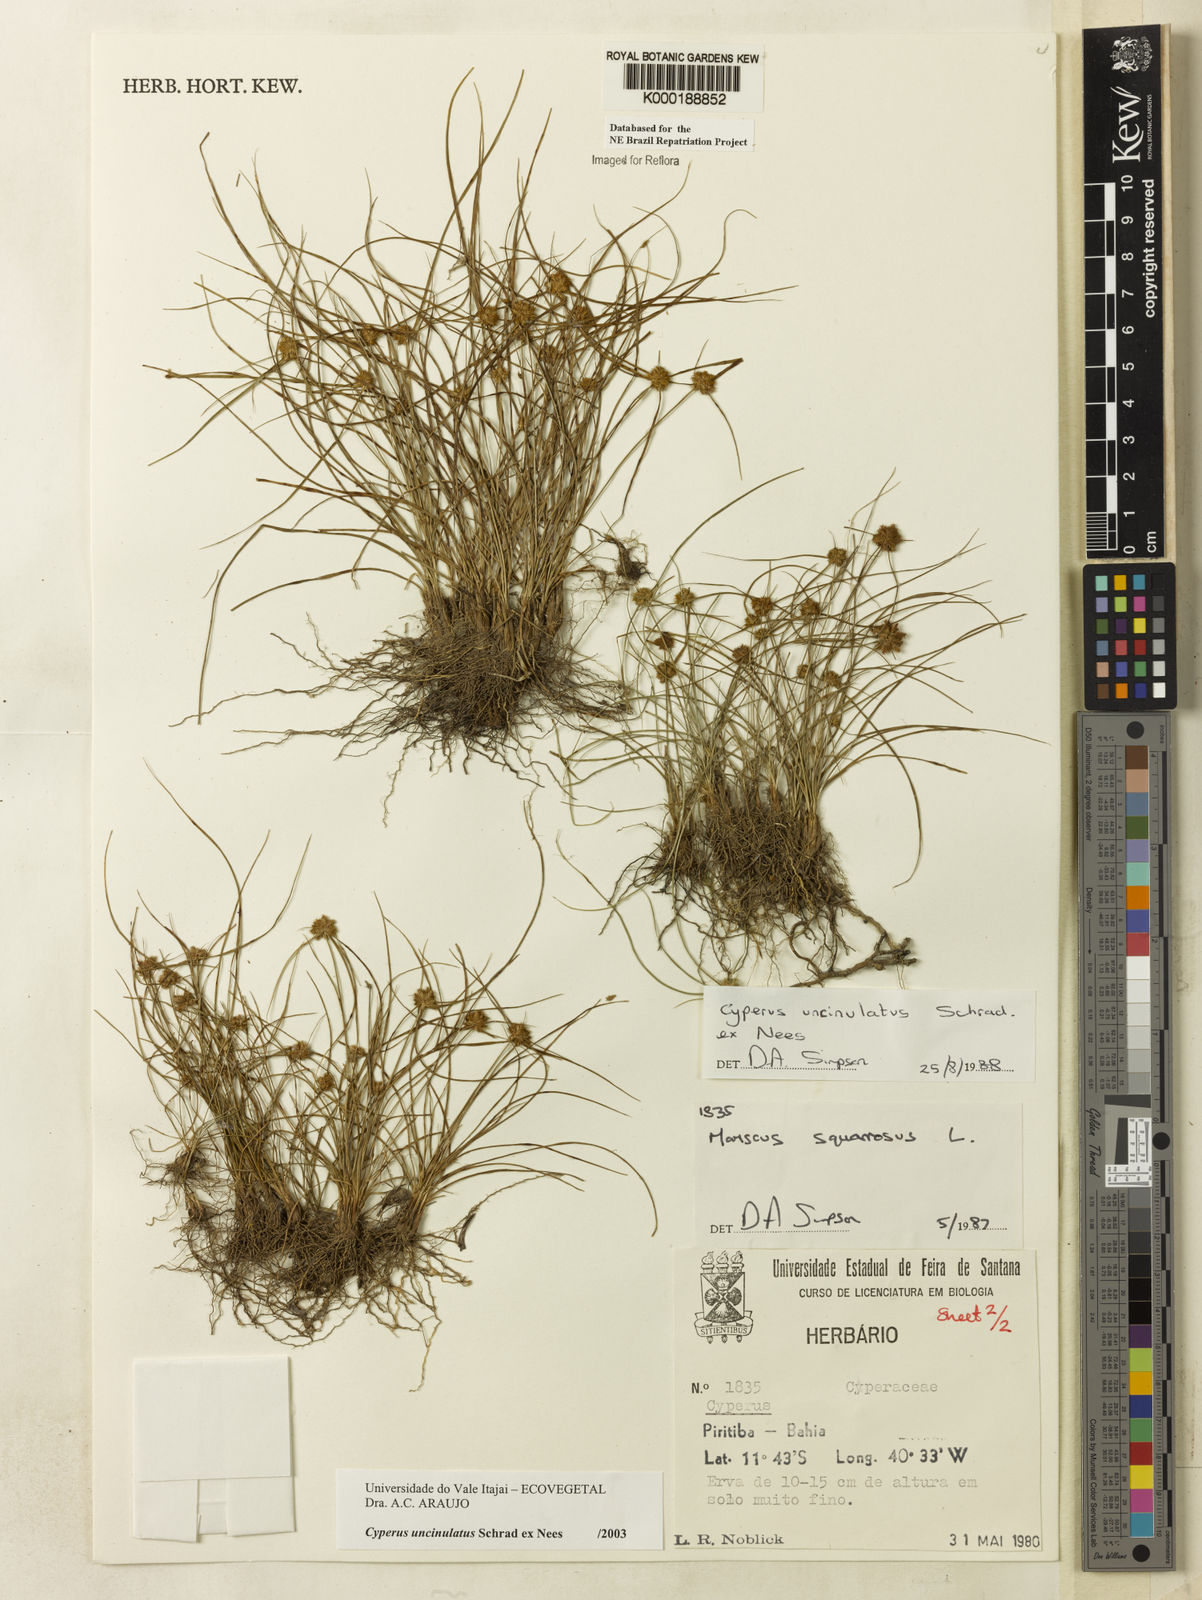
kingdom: Plantae
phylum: Tracheophyta
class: Liliopsida
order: Poales
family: Cyperaceae
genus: Cyperus
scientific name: Cyperus uncinulatus
